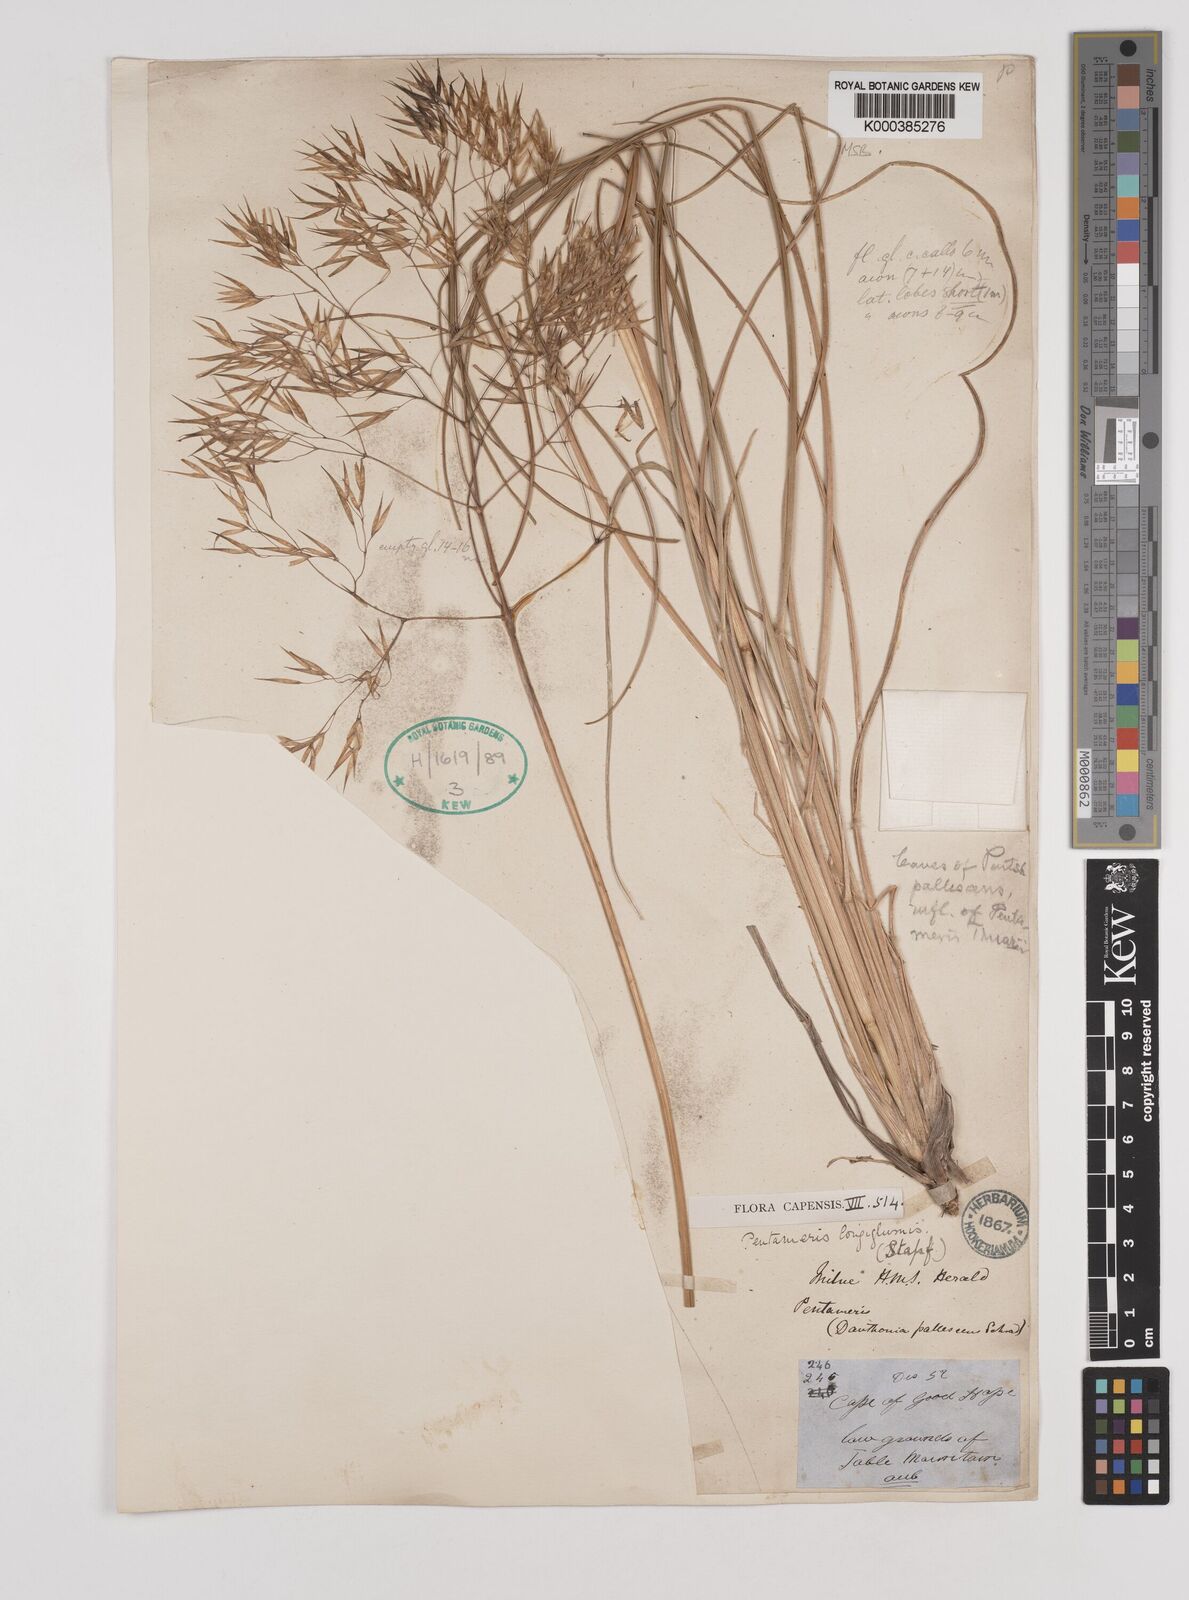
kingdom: Plantae
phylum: Tracheophyta
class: Liliopsida
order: Poales
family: Poaceae
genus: Pentameris
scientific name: Pentameris
